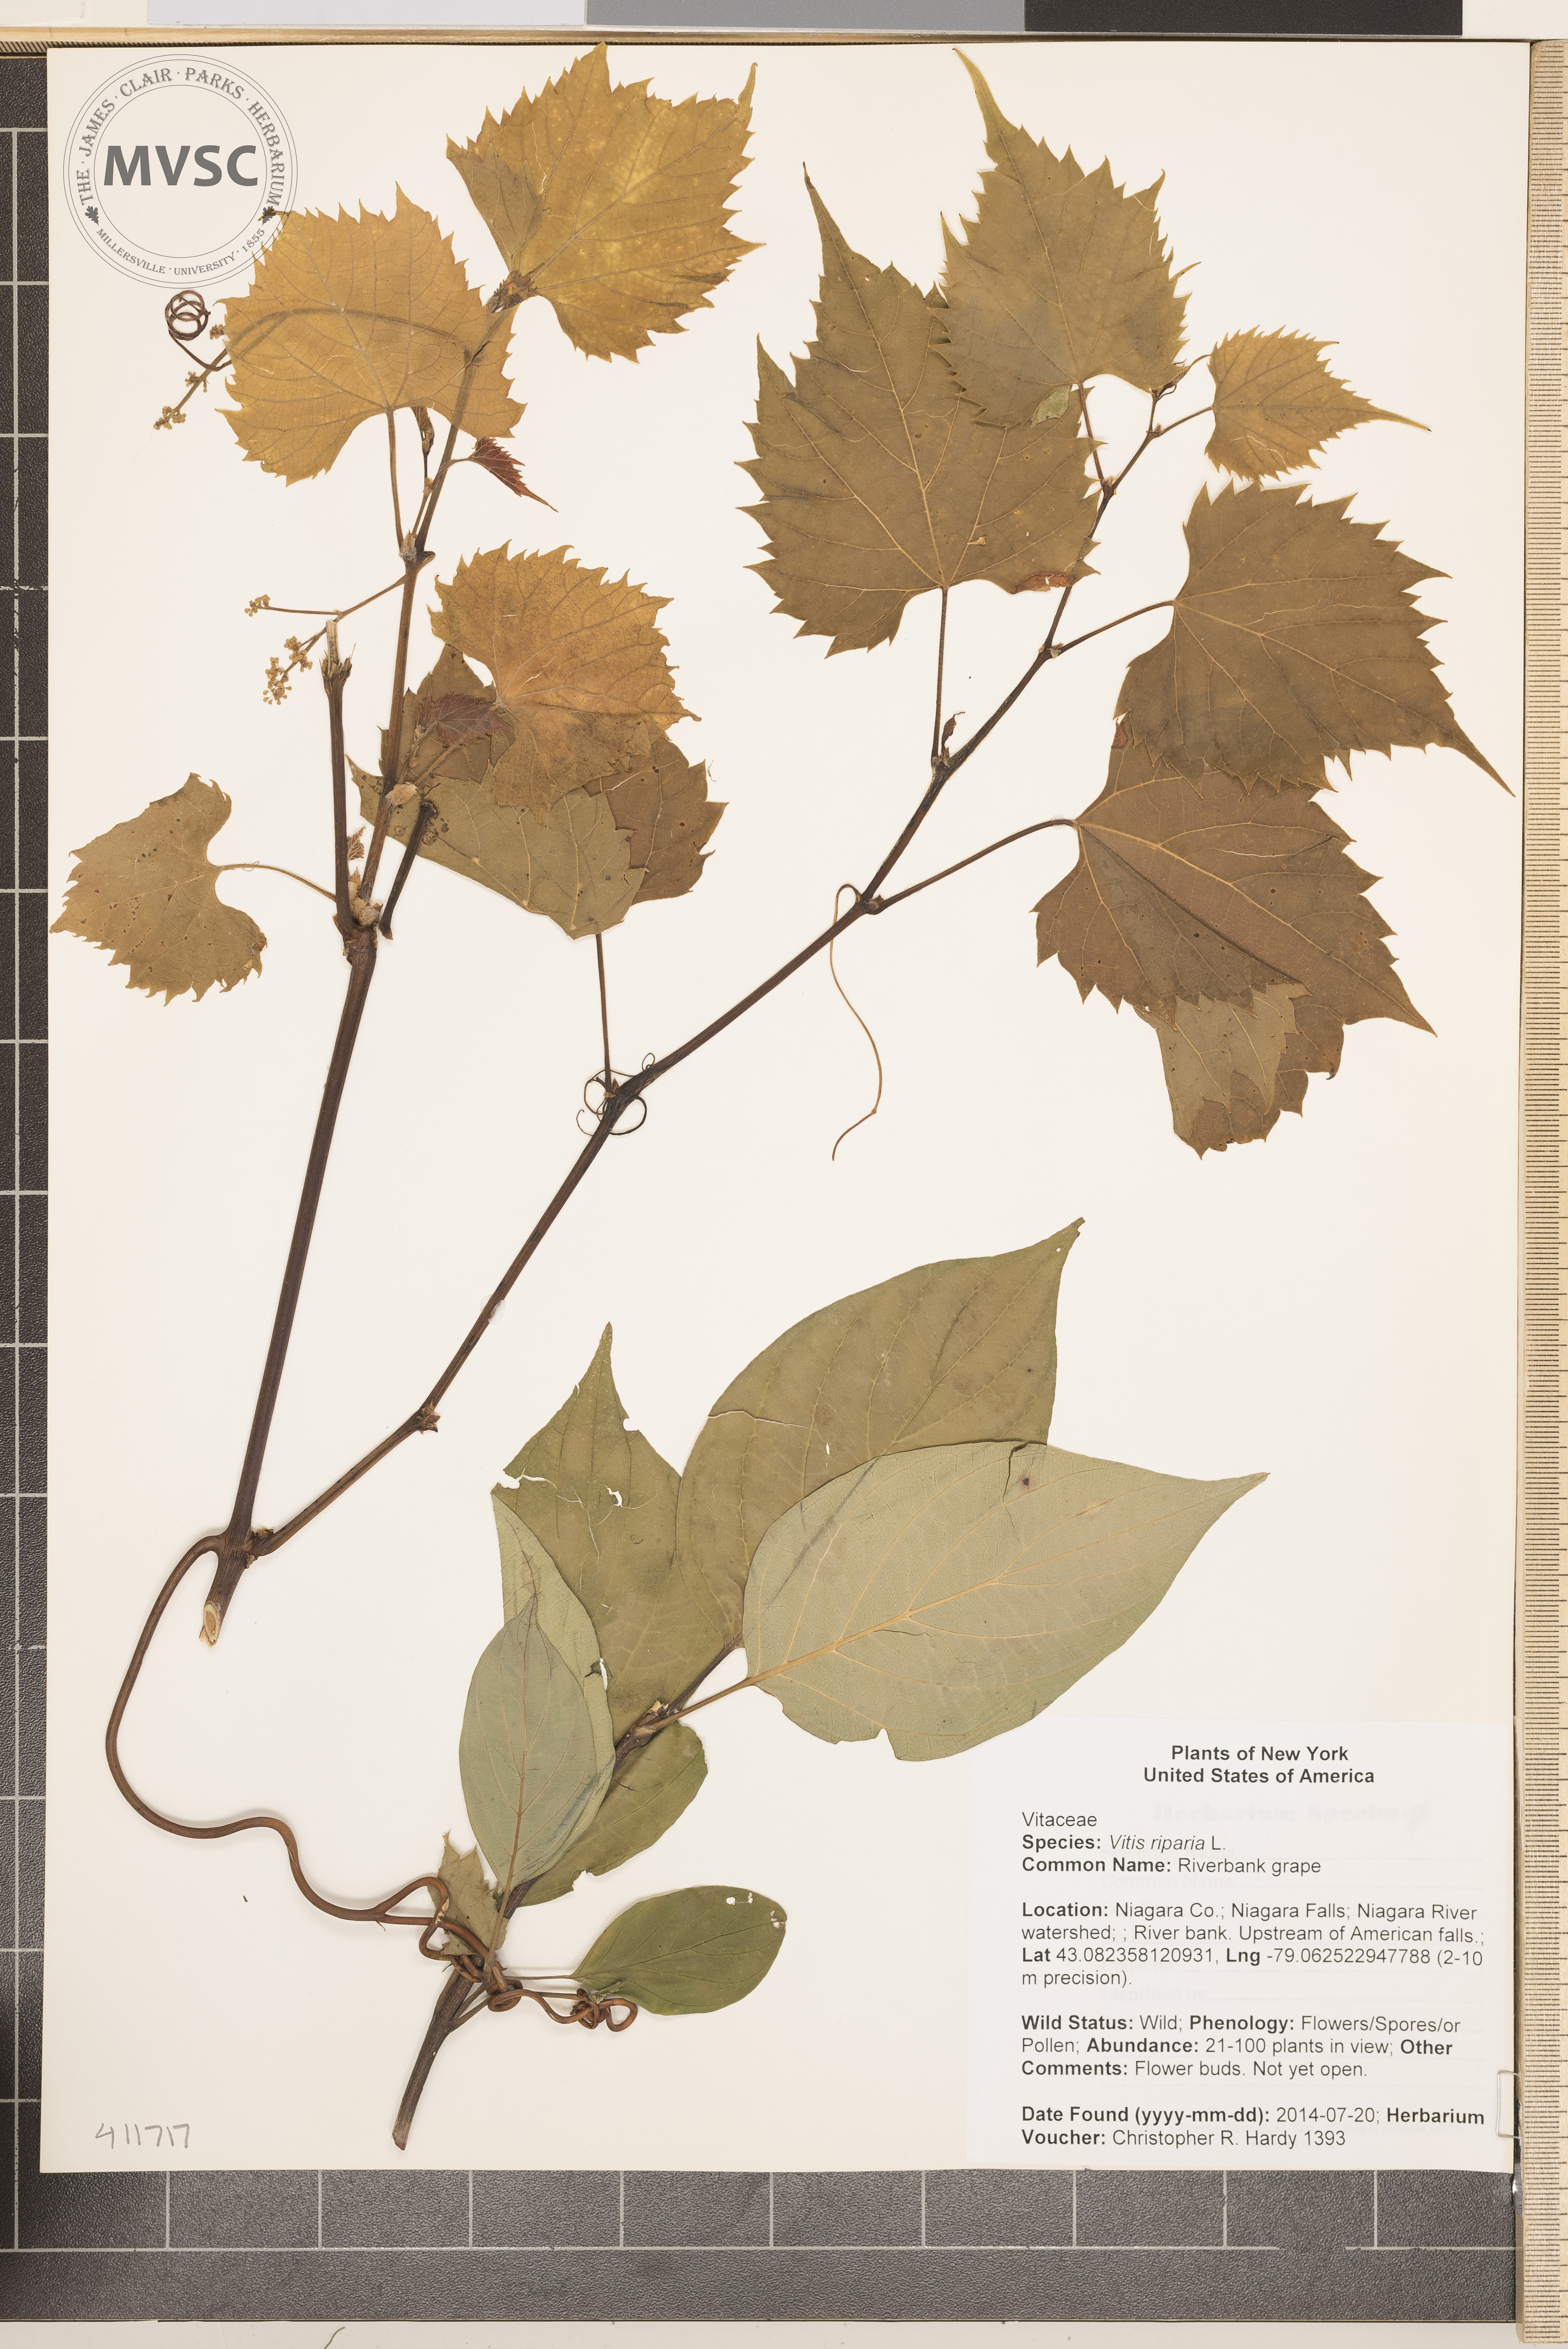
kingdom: Plantae
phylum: Tracheophyta
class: Magnoliopsida
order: Vitales
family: Vitaceae
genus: Vitis
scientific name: Vitis riparia
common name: Riverbank grape
